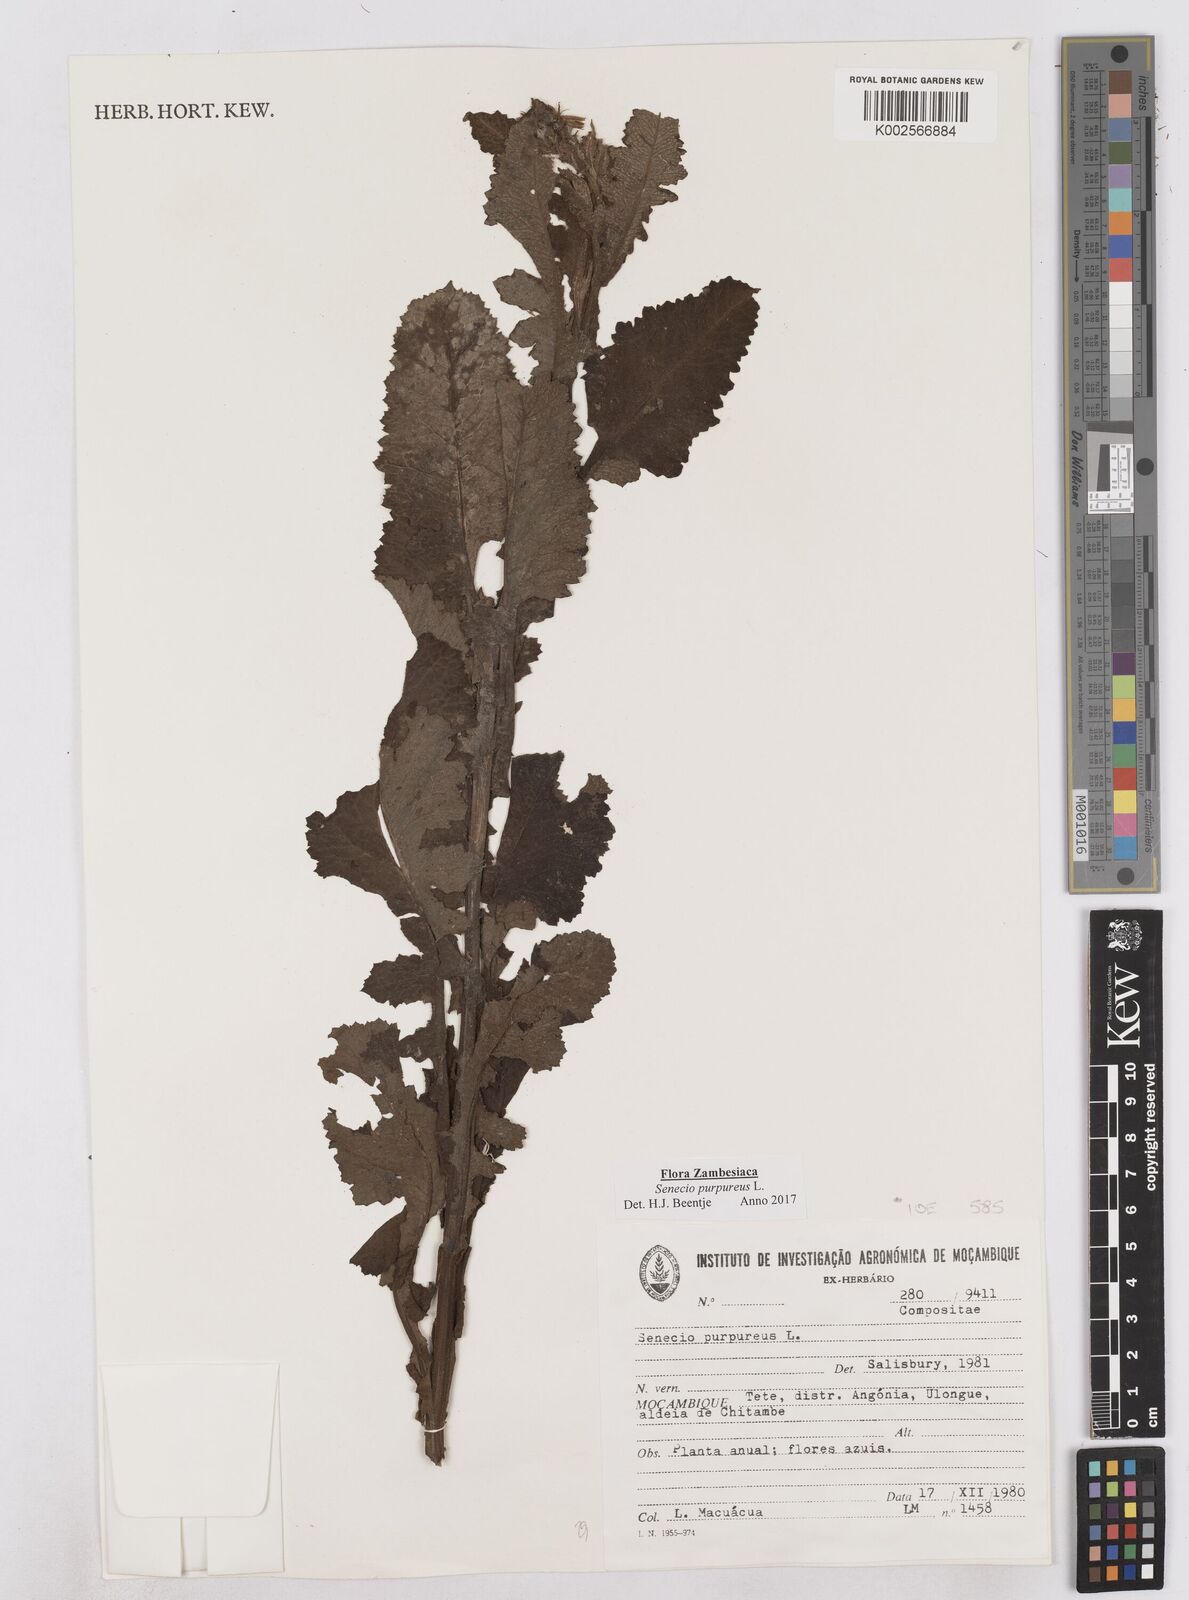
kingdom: Plantae
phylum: Tracheophyta
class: Magnoliopsida
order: Asterales
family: Asteraceae
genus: Senecio
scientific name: Senecio purpureus
